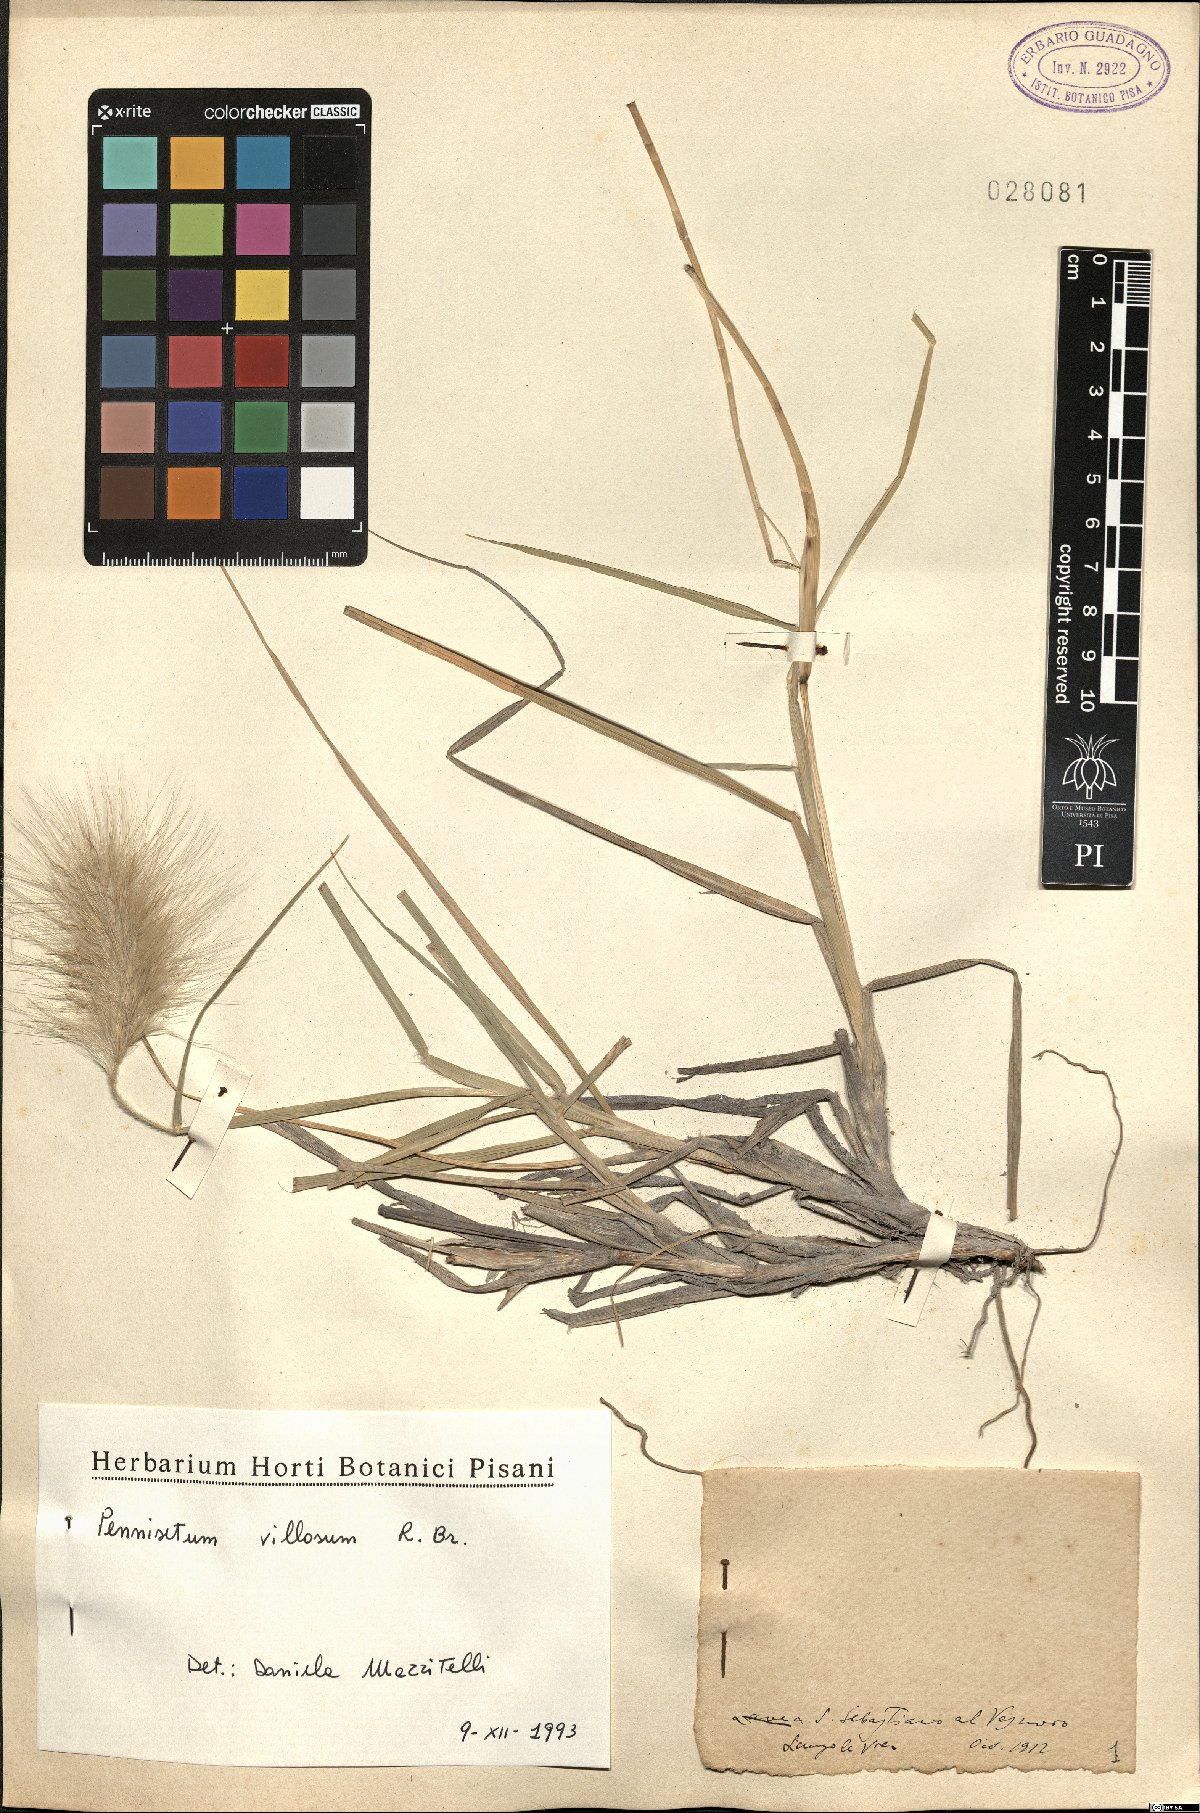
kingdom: Plantae
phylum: Tracheophyta
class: Liliopsida
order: Poales
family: Poaceae
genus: Cenchrus
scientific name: Cenchrus longisetus
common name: Feathertop
